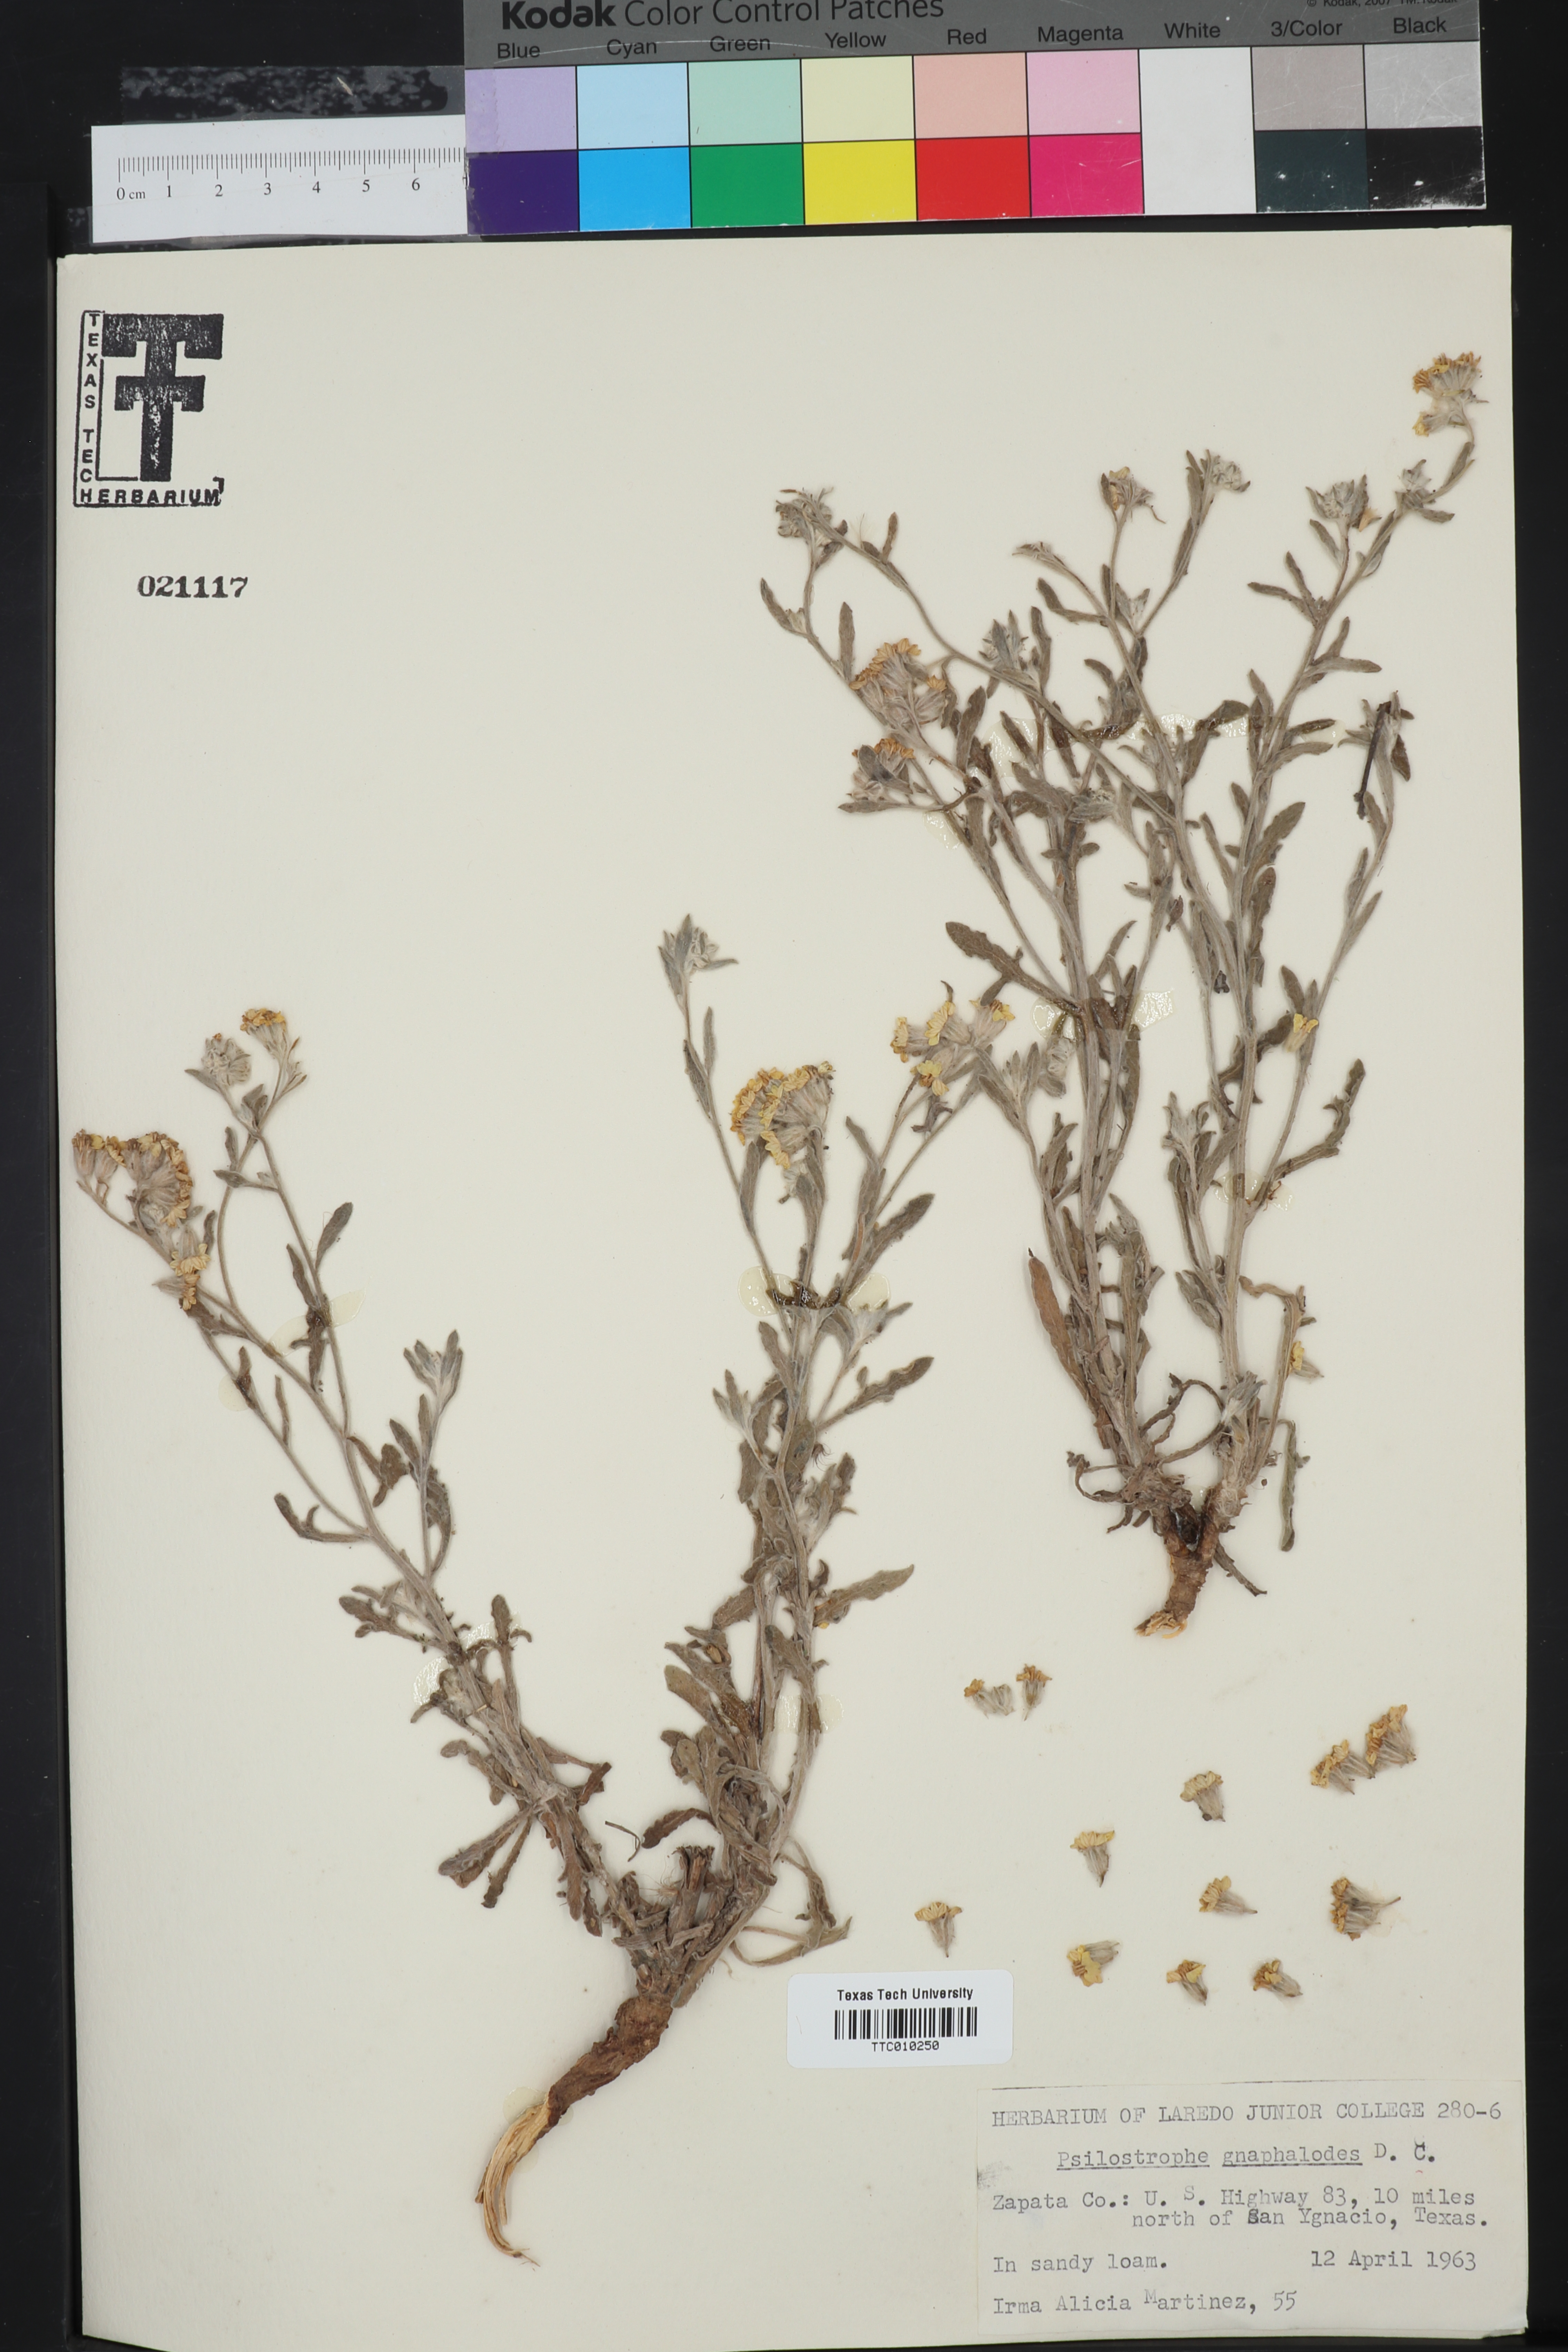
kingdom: Plantae
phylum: Tracheophyta
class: Magnoliopsida
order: Asterales
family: Asteraceae
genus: Psilostrophe
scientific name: Psilostrophe gnaphalioides
